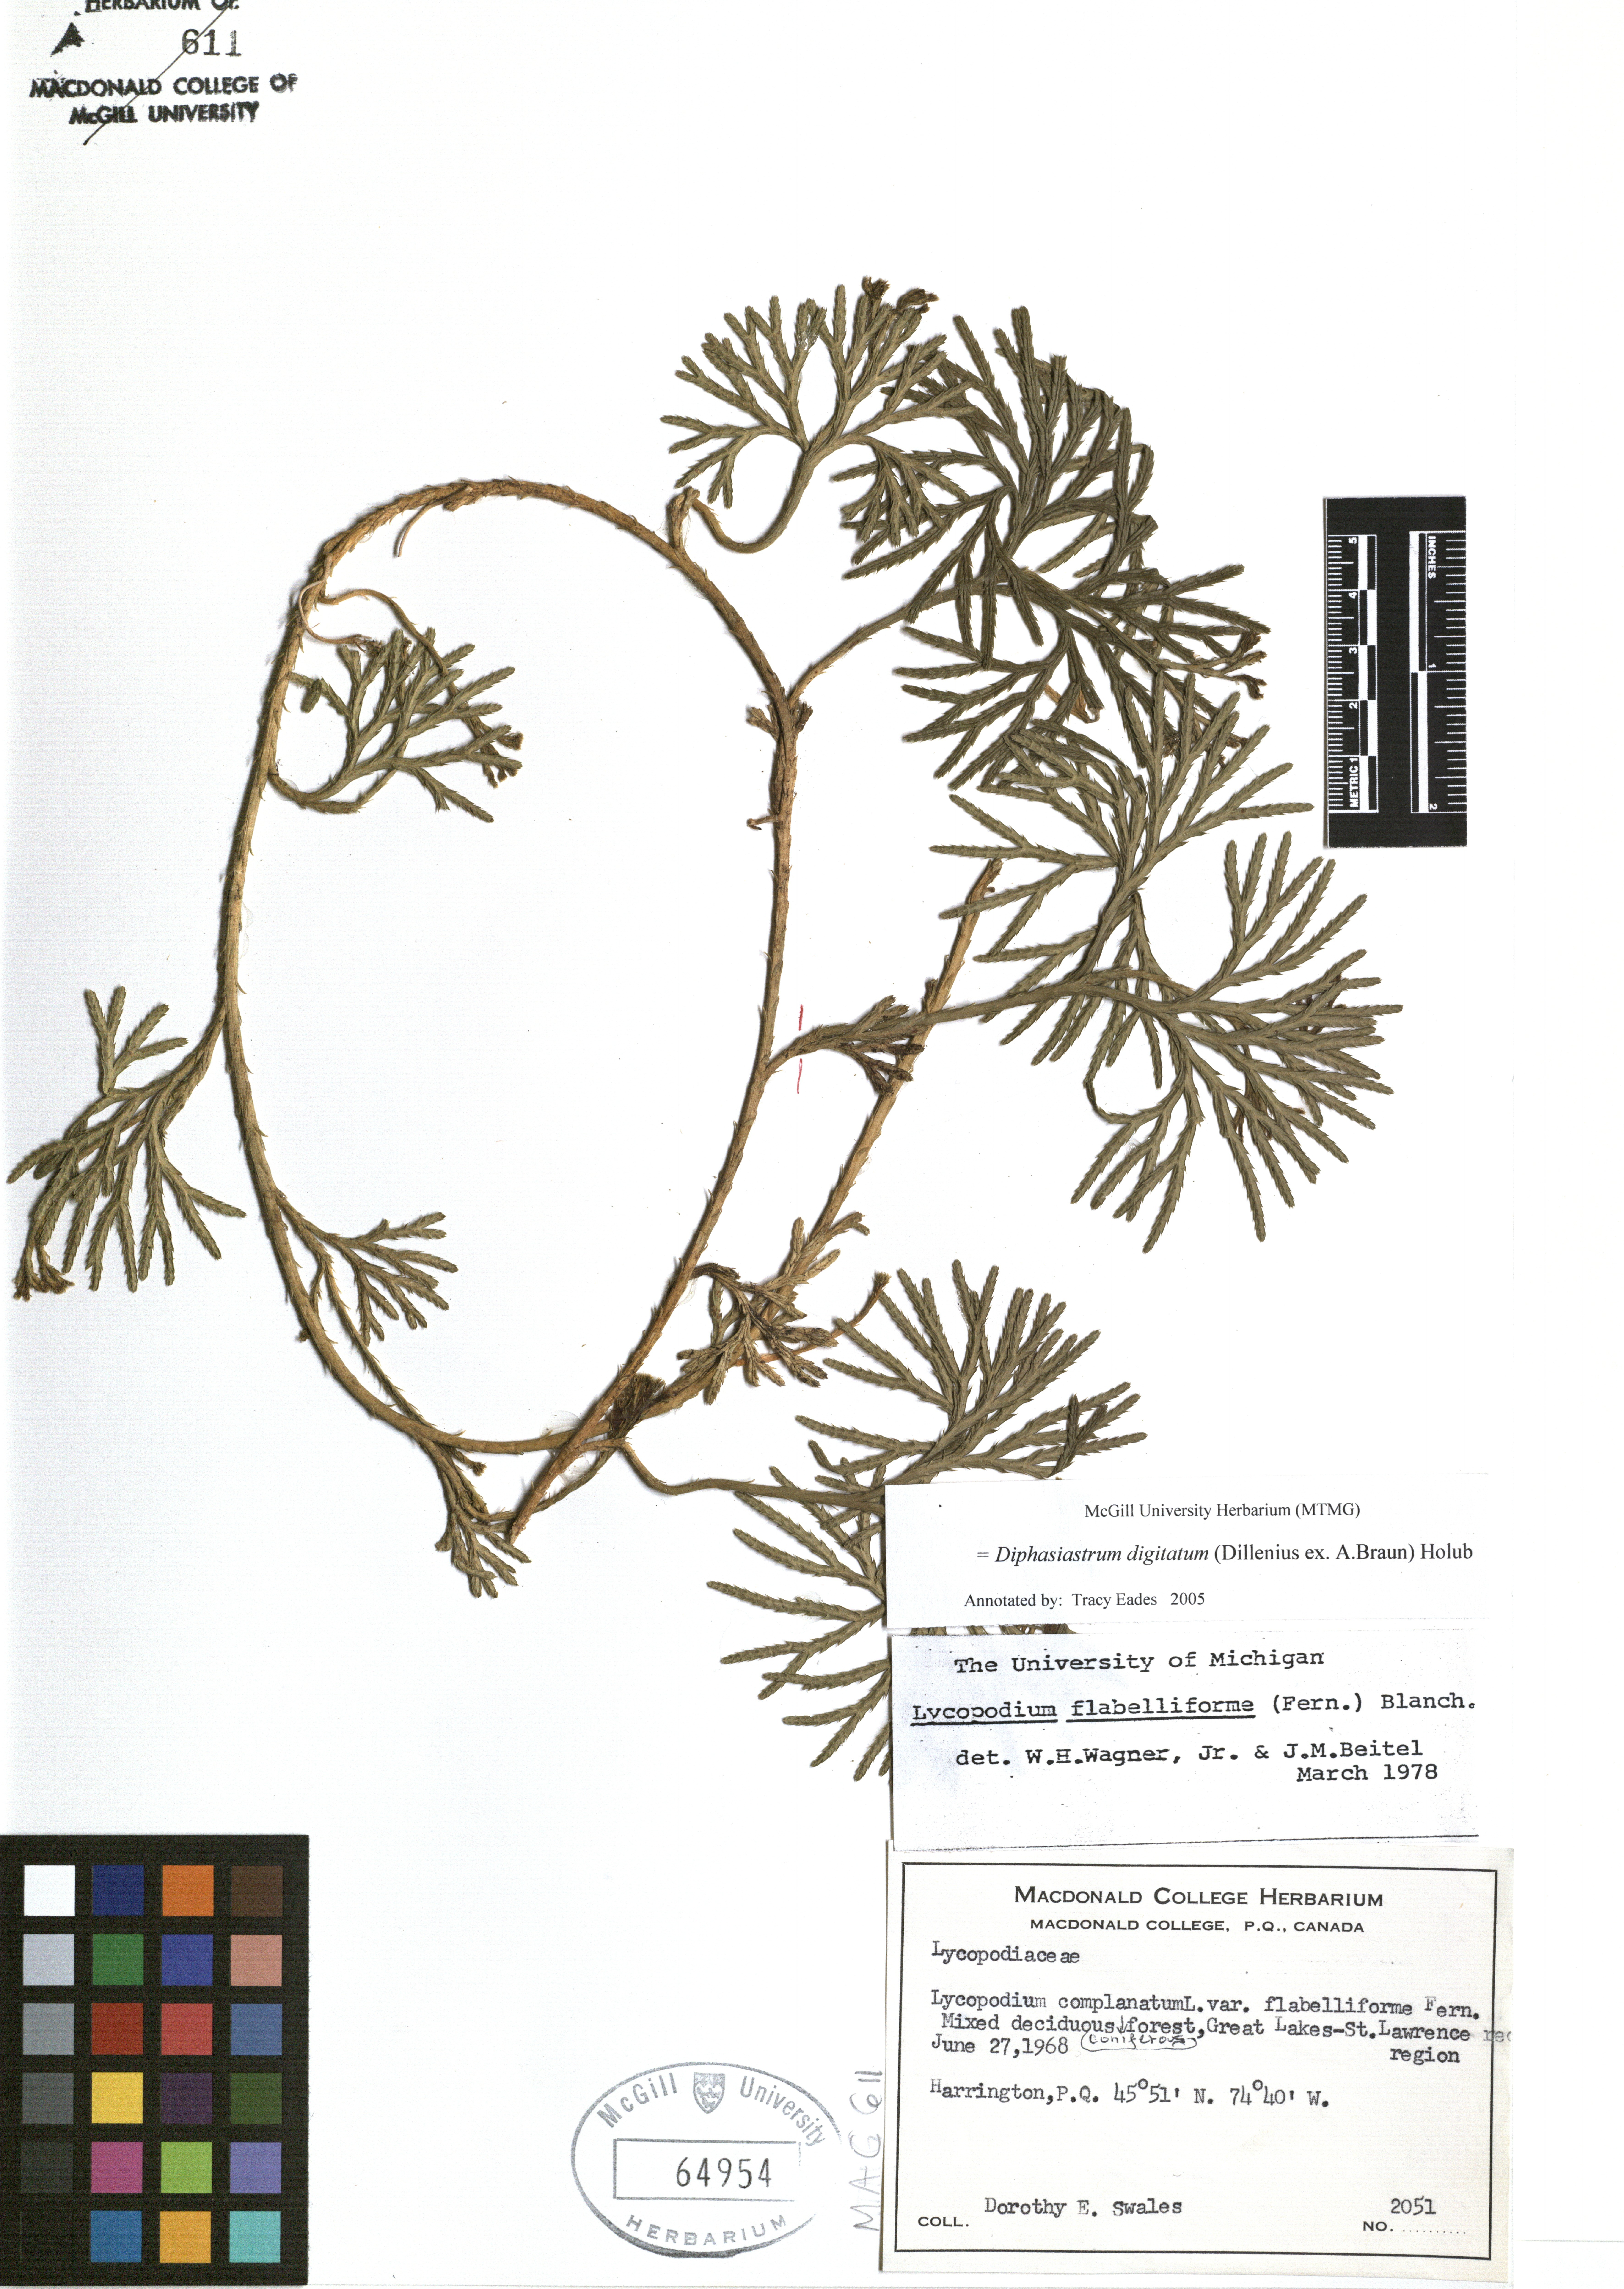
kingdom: Plantae
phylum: Tracheophyta
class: Lycopodiopsida
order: Lycopodiales
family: Lycopodiaceae
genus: Diphasiastrum
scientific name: Diphasiastrum digitatum
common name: Southern running-pine
